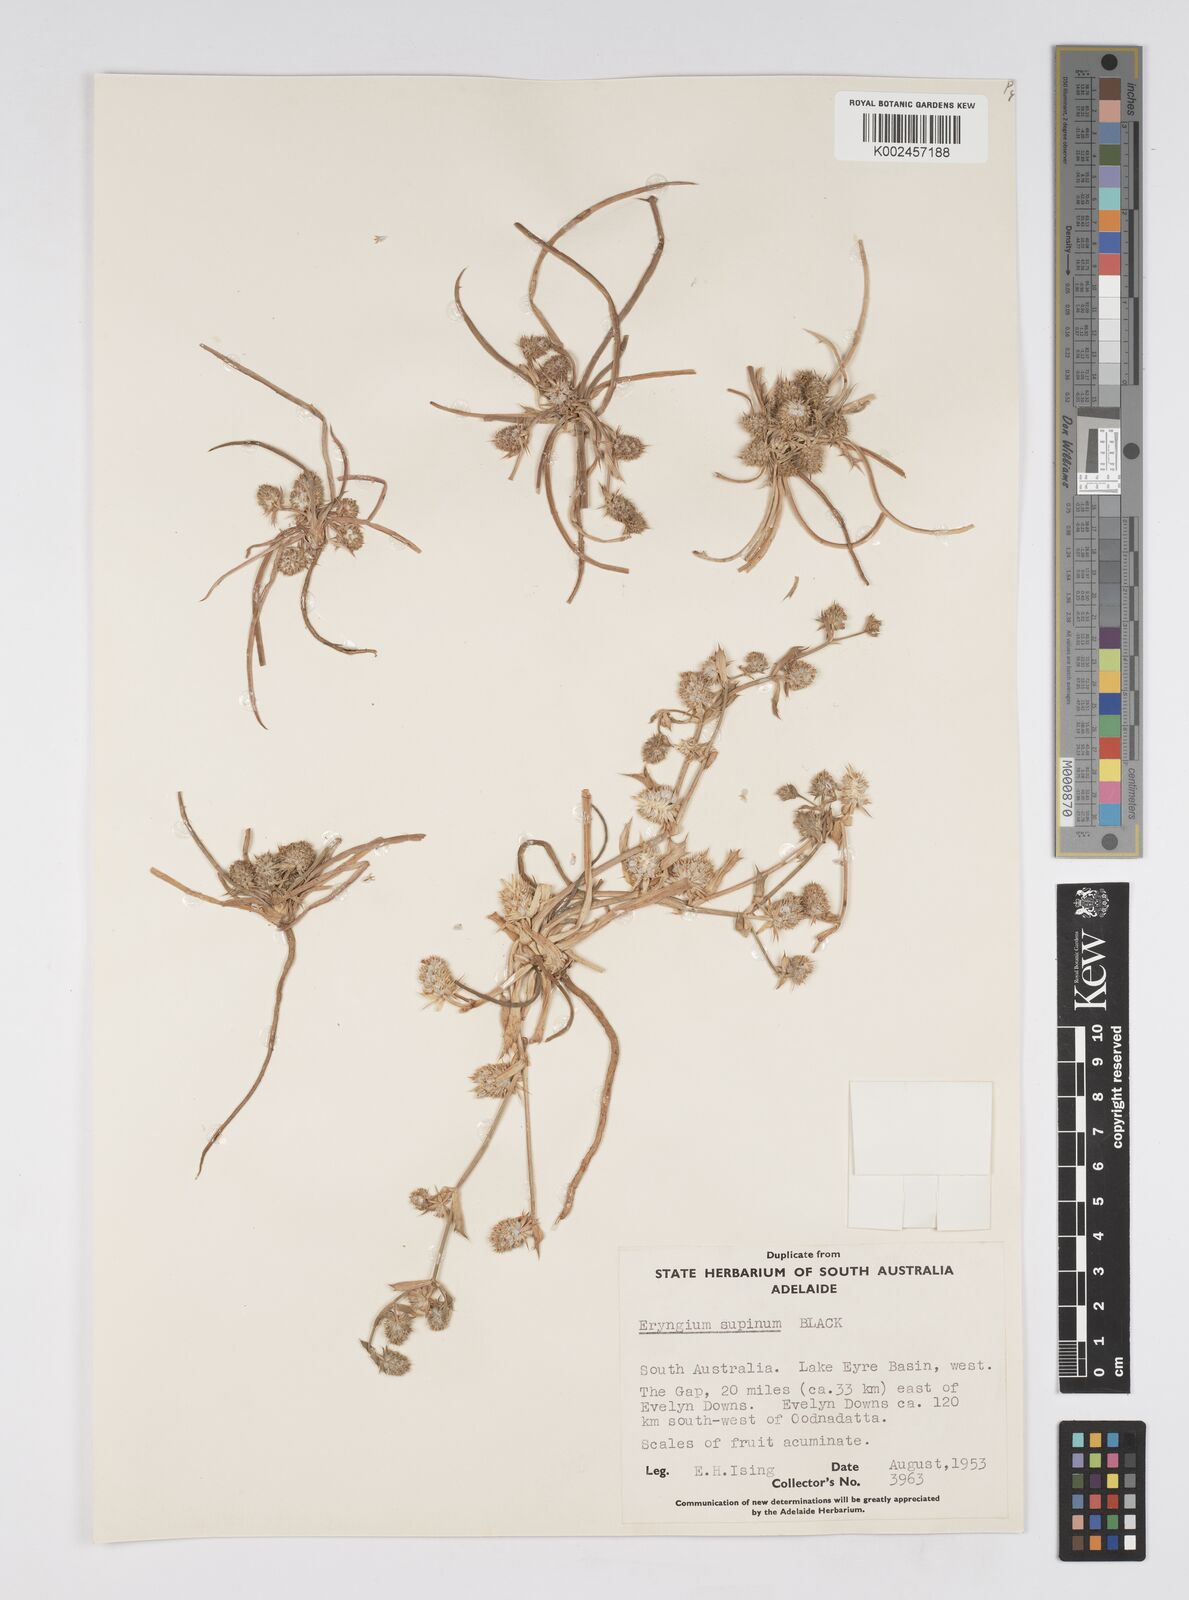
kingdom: Plantae
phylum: Tracheophyta
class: Magnoliopsida
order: Apiales
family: Apiaceae
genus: Eryngium
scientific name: Eryngium supinum
